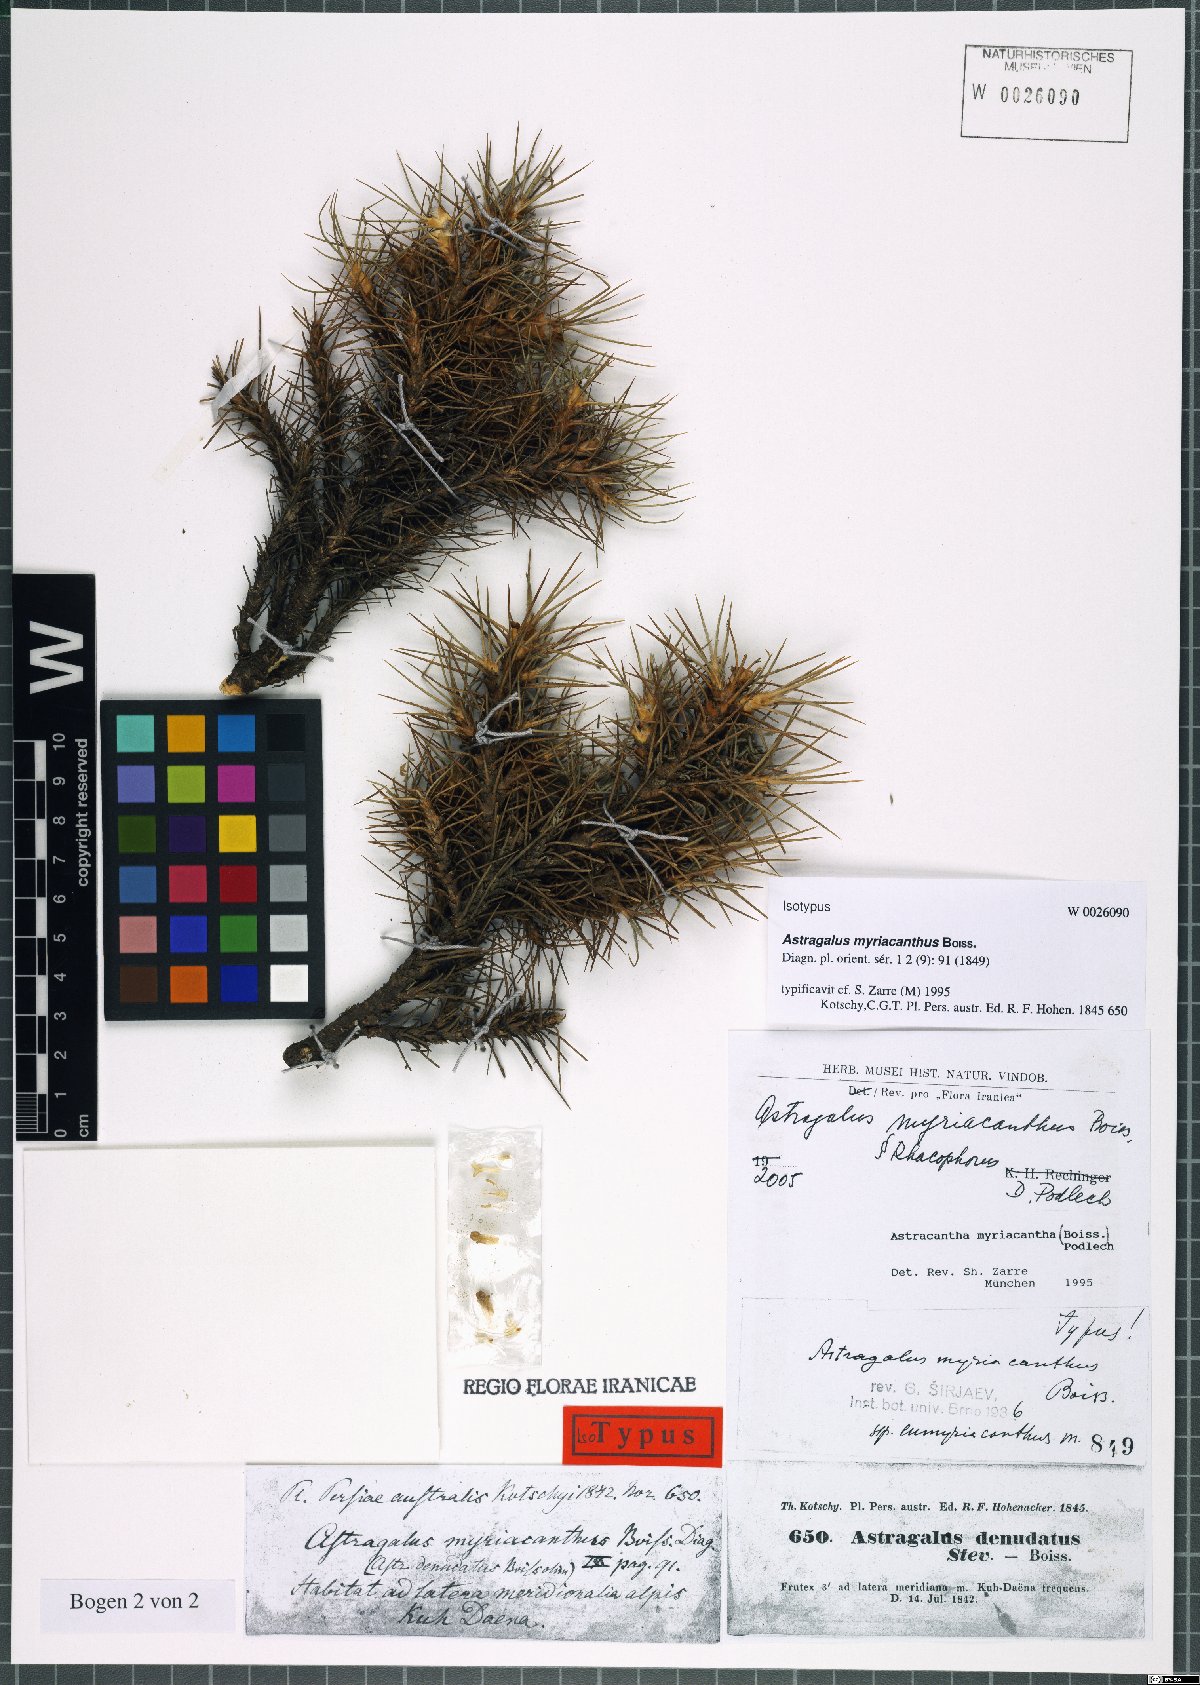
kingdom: Plantae
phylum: Tracheophyta
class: Magnoliopsida
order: Fabales
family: Fabaceae
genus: Astragalus
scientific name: Astragalus myriacanthus
